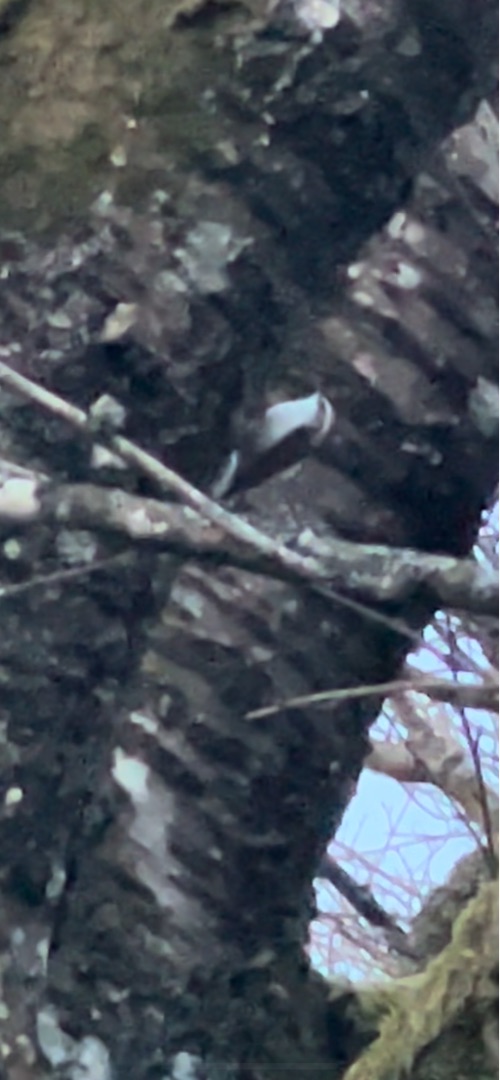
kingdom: Animalia
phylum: Chordata
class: Aves
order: Passeriformes
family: Certhiidae
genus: Certhia
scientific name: Certhia familiaris
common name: Træløber
